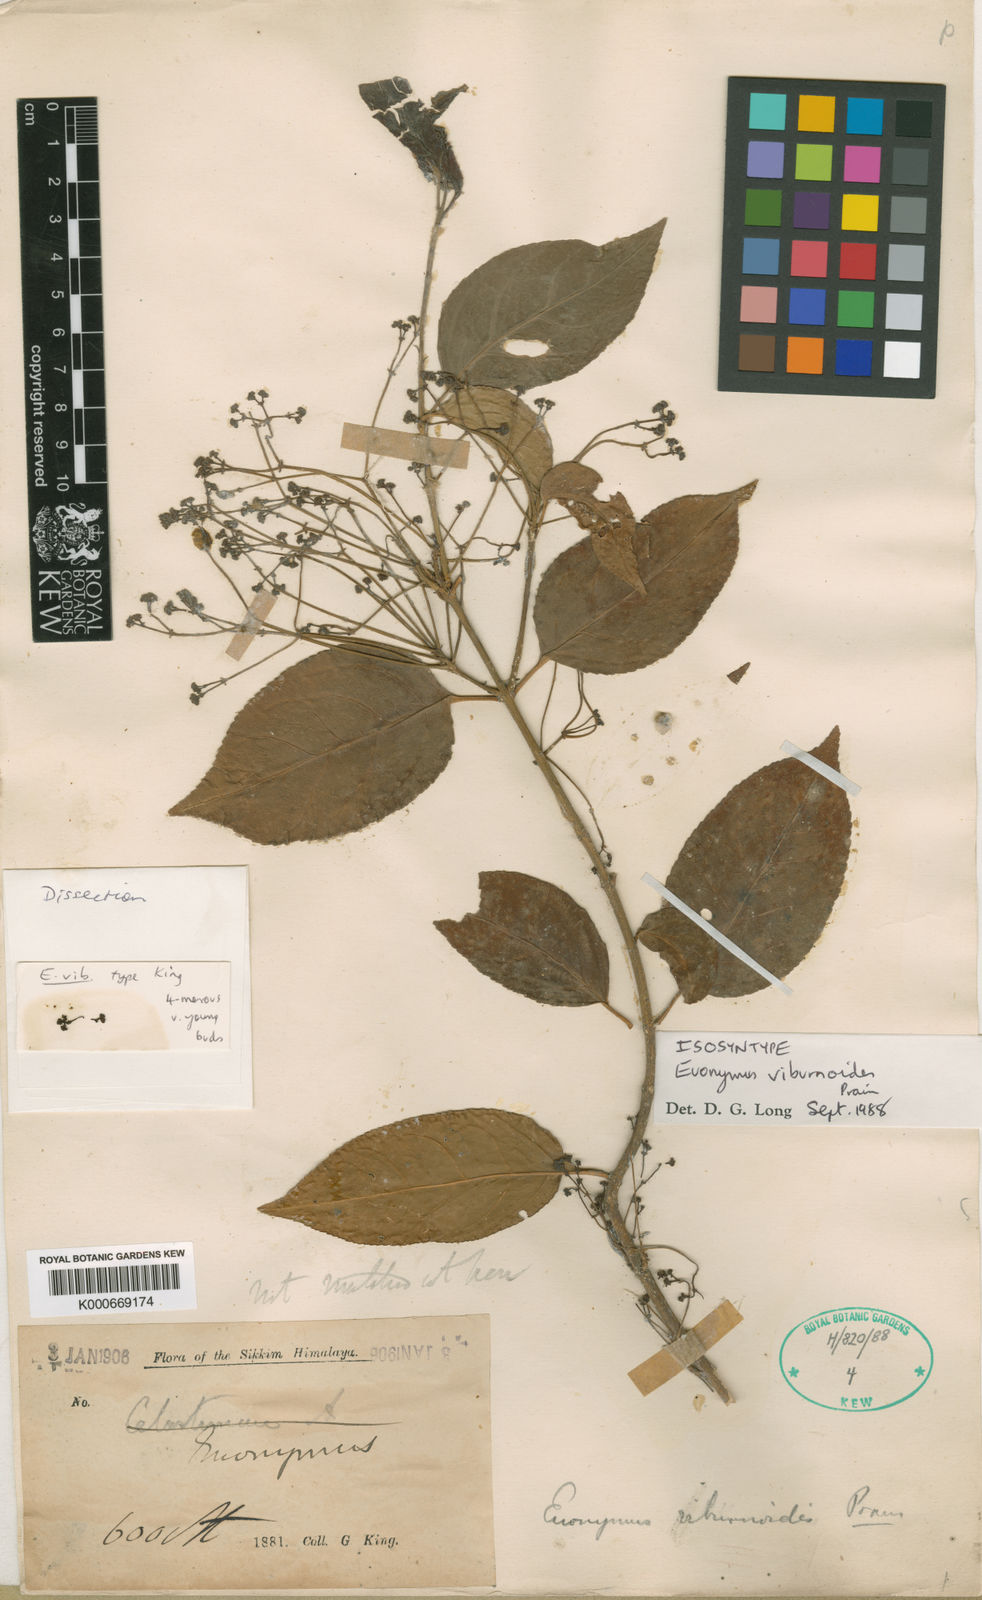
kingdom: Plantae
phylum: Tracheophyta
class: Magnoliopsida
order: Celastrales
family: Celastraceae
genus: Euonymus
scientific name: Euonymus viburnoides
